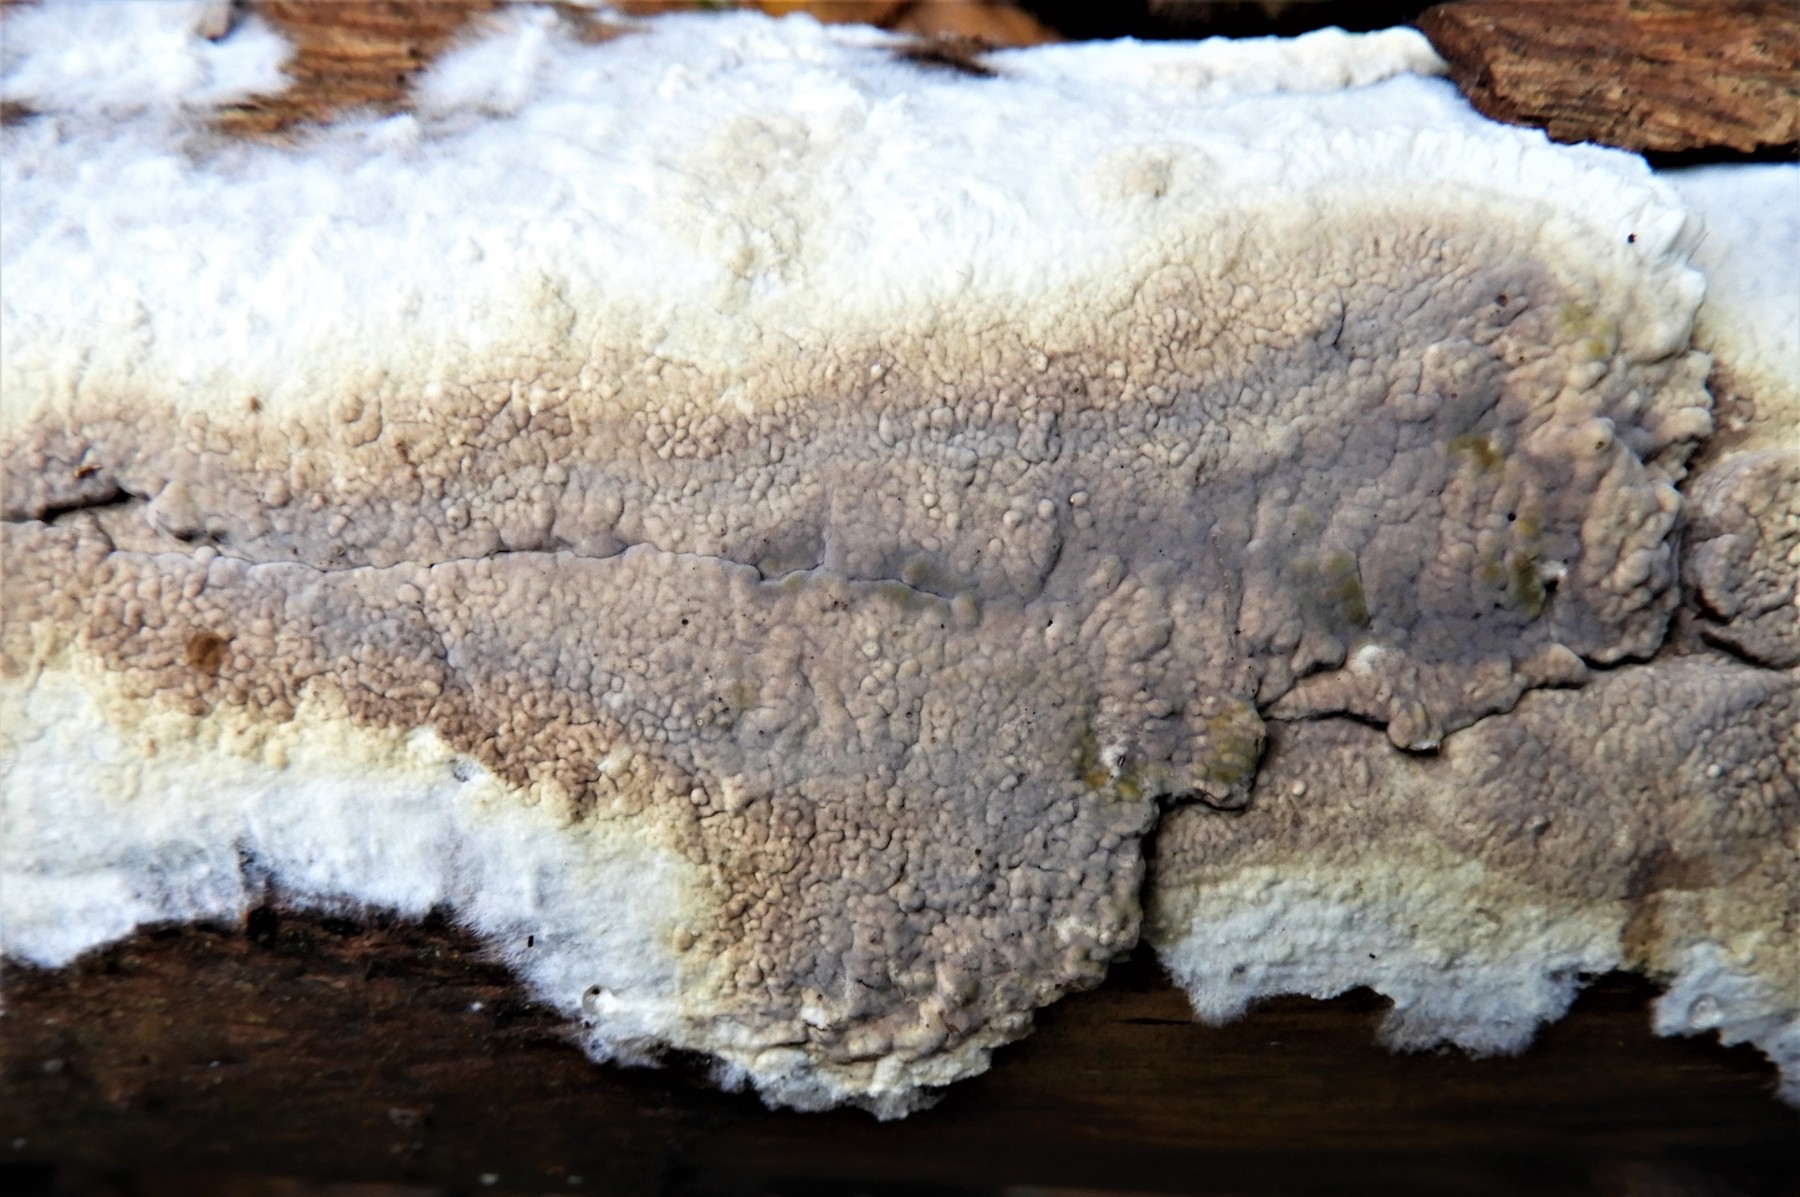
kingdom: Fungi
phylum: Basidiomycota
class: Agaricomycetes
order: Boletales
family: Coniophoraceae
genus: Coniophora
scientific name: Coniophora puteana
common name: gul tømmersvamp
